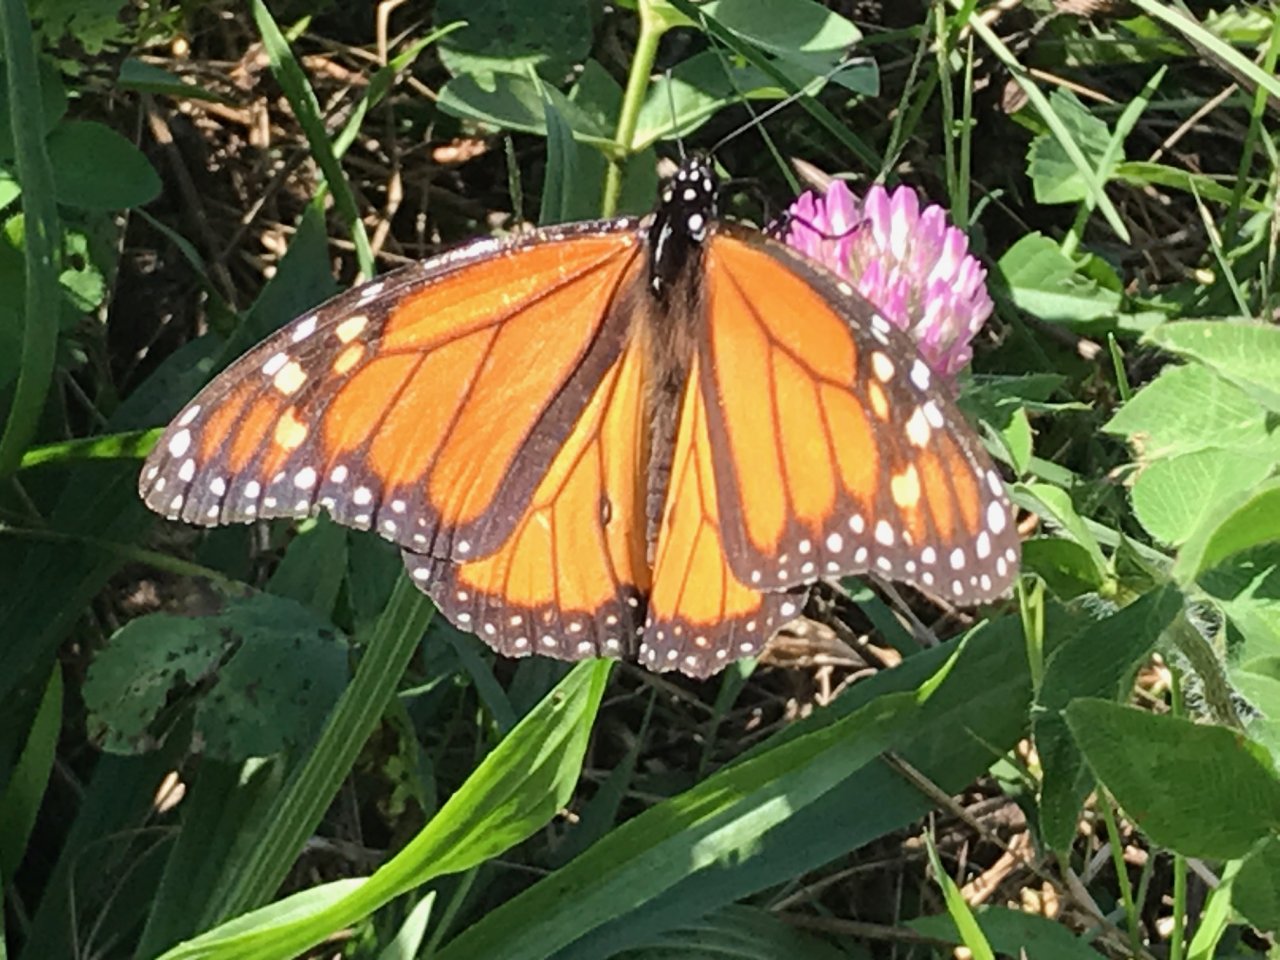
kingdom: Animalia
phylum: Arthropoda
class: Insecta
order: Lepidoptera
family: Nymphalidae
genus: Danaus
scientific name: Danaus plexippus
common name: Monarch
